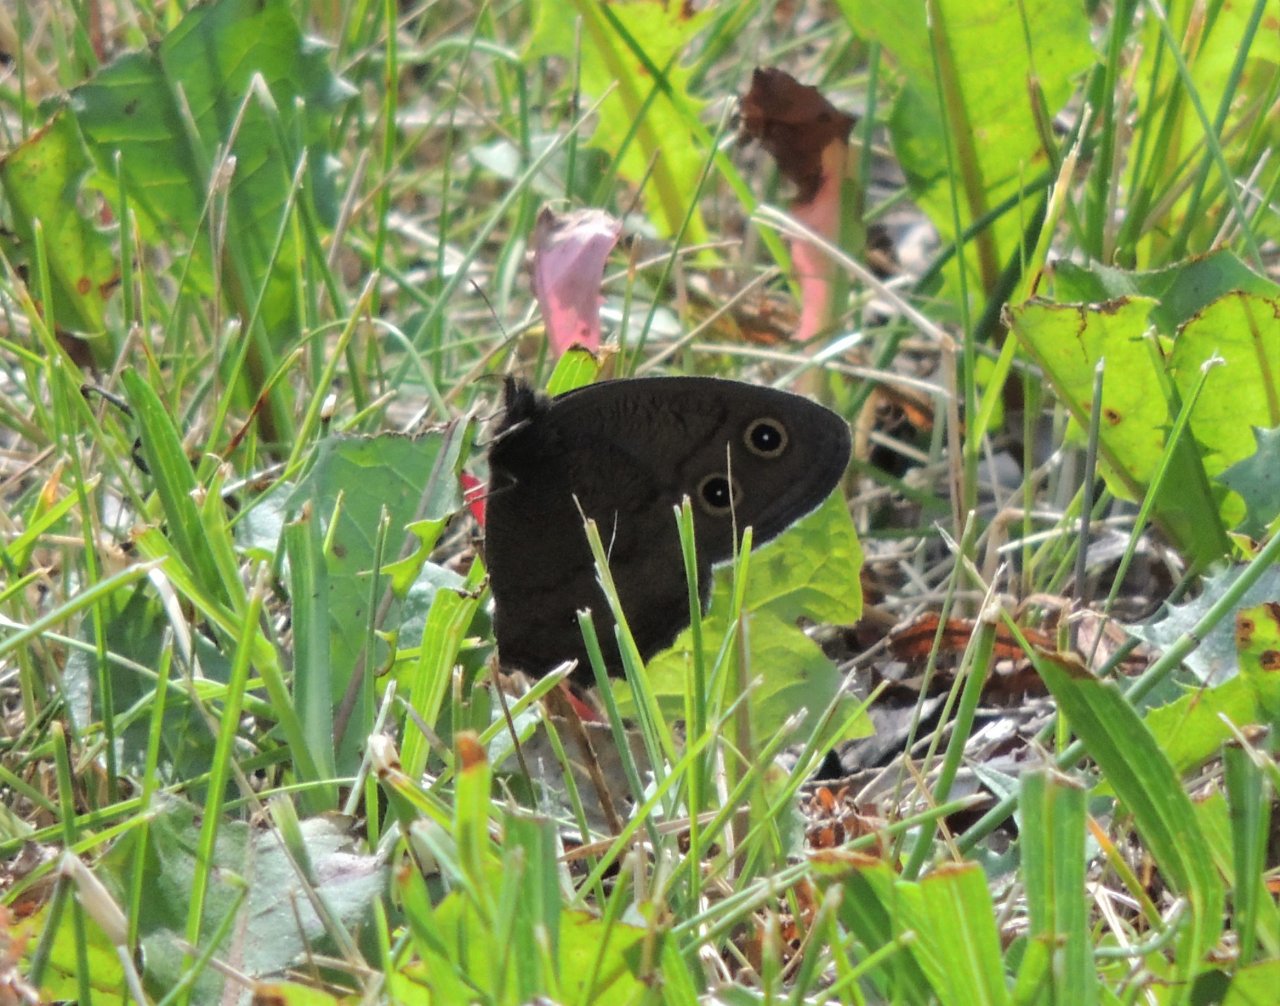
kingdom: Animalia
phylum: Arthropoda
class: Insecta
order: Lepidoptera
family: Nymphalidae
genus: Cercyonis
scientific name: Cercyonis pegala
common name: Common Wood-Nymph
